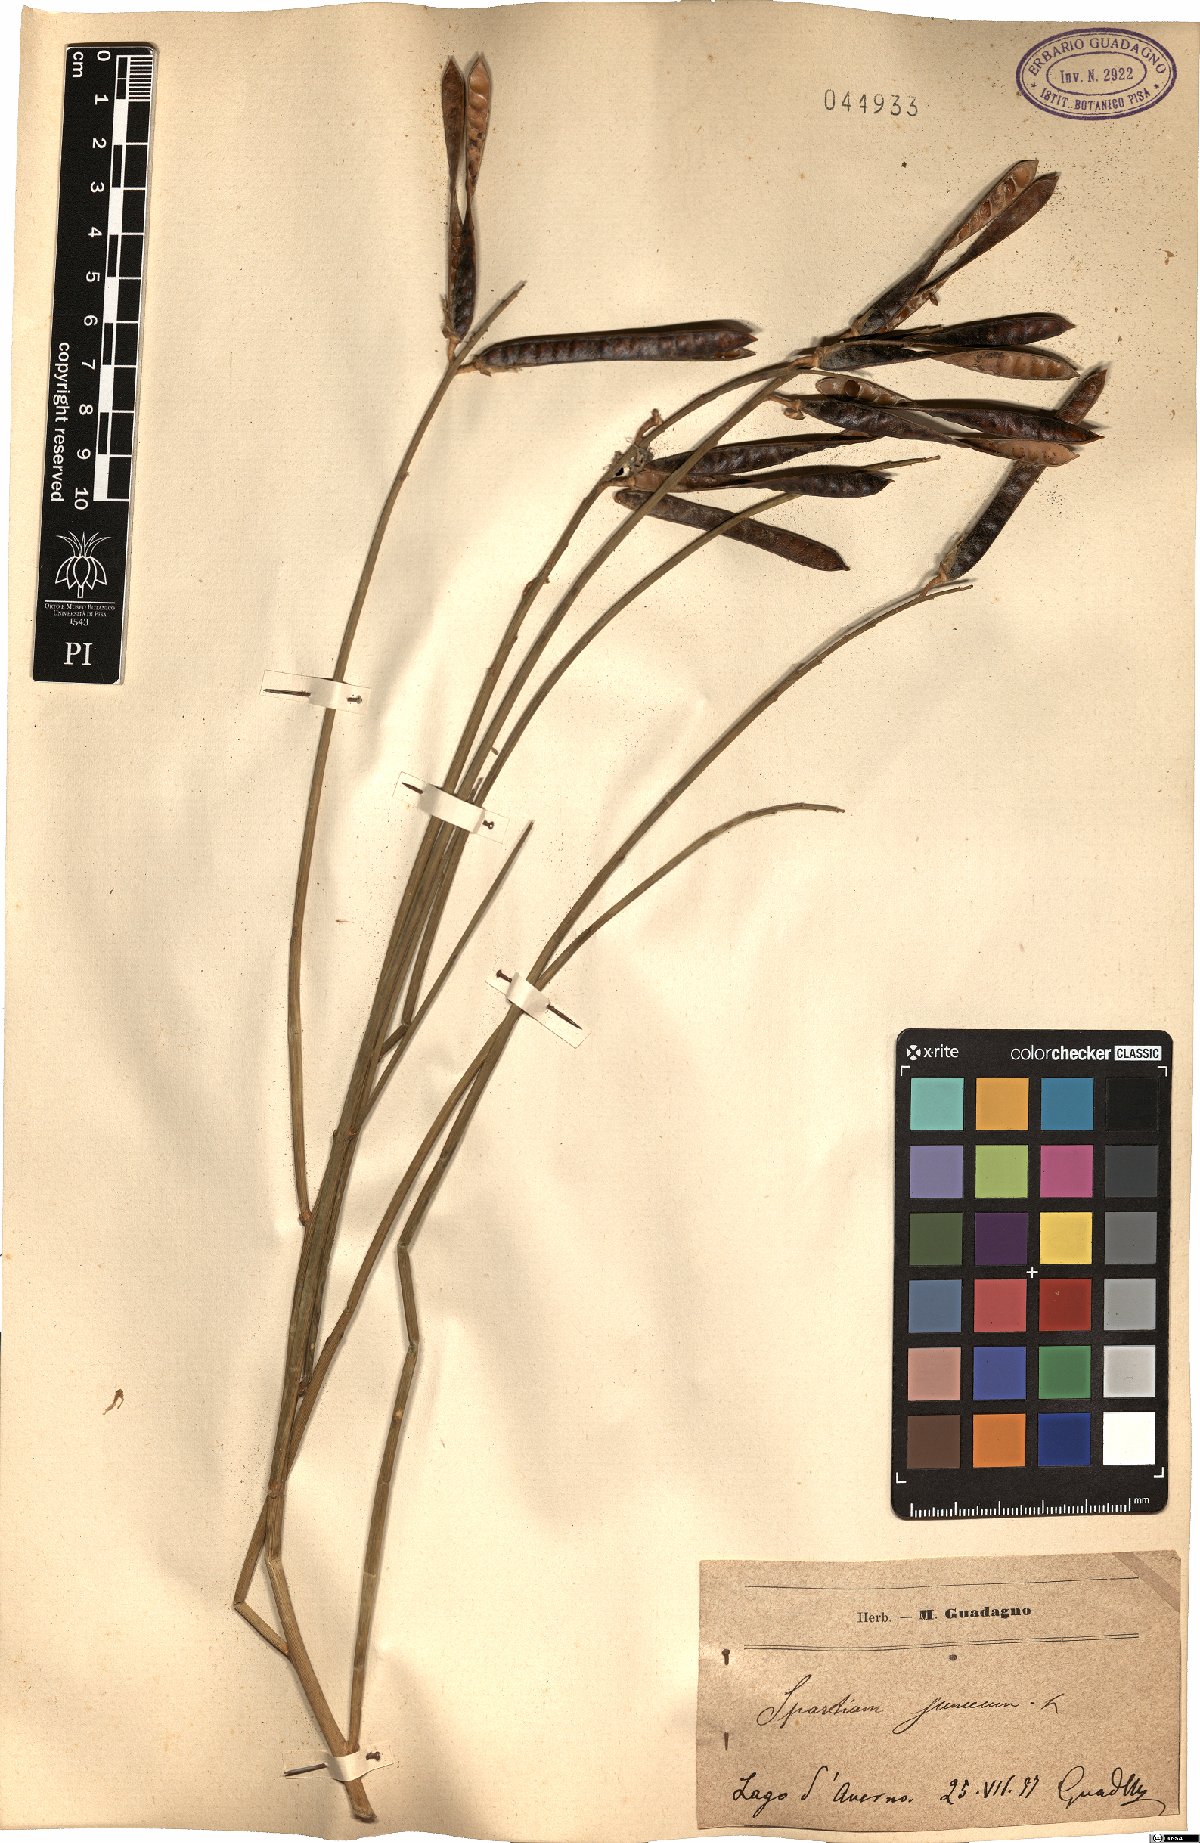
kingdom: Plantae
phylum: Tracheophyta
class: Magnoliopsida
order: Fabales
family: Fabaceae
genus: Spartium
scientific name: Spartium junceum
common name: Spanish broom
